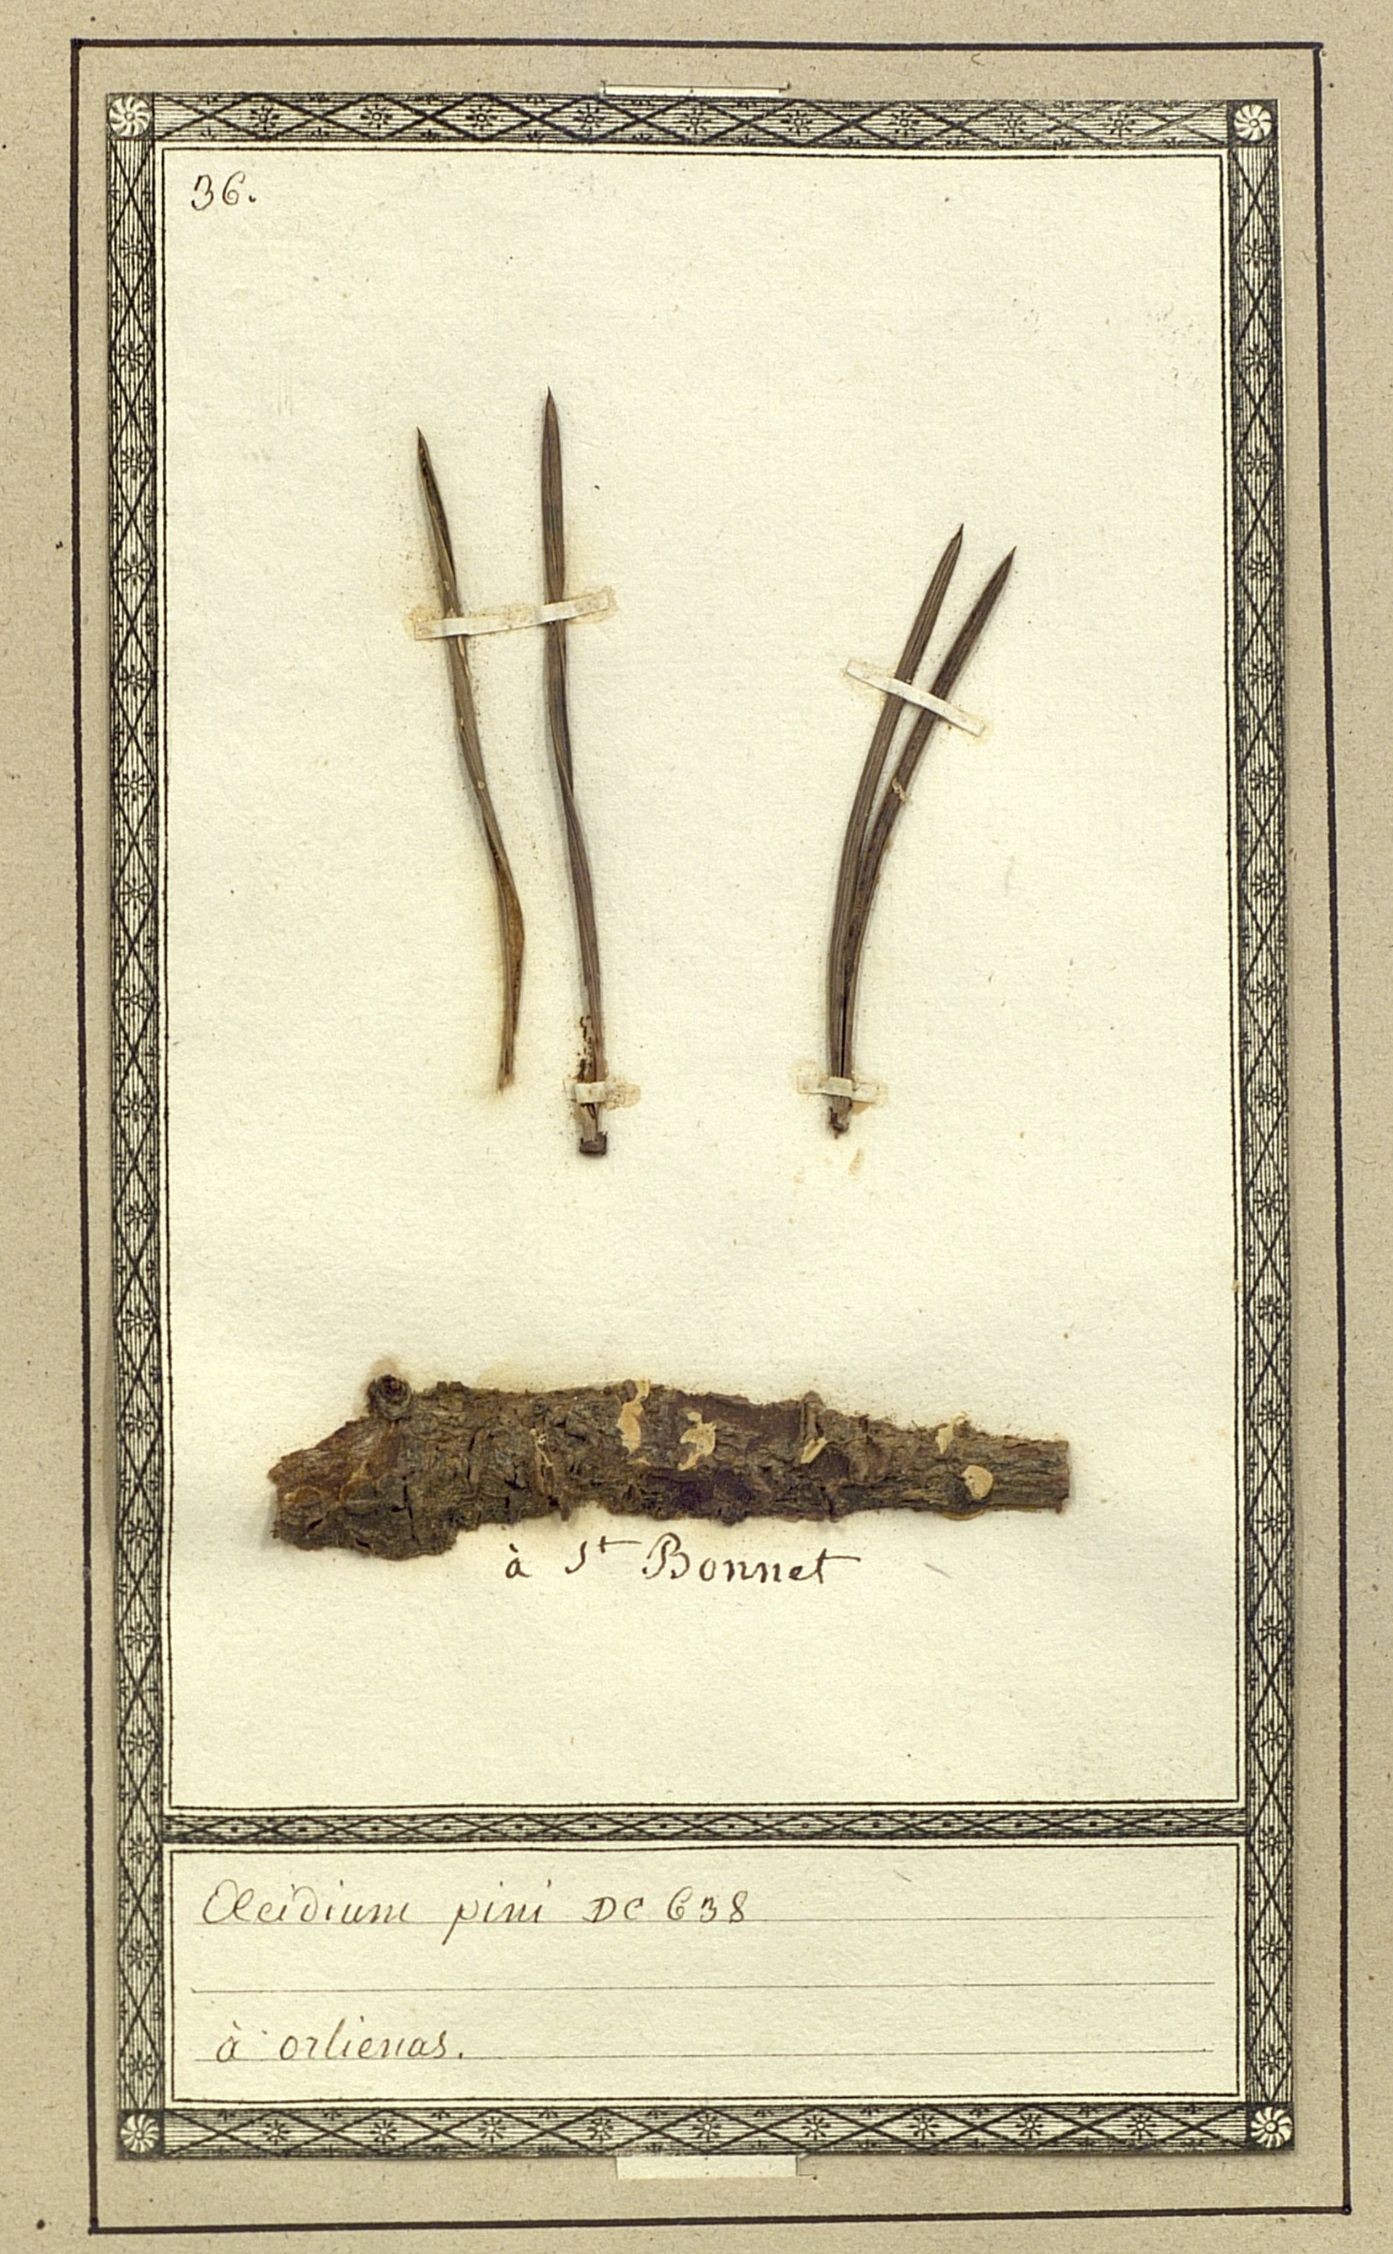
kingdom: Fungi
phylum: Basidiomycota
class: Pucciniomycetes
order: Pucciniales
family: Pucciniaceae
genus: Aecidium
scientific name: Aecidium pygei
